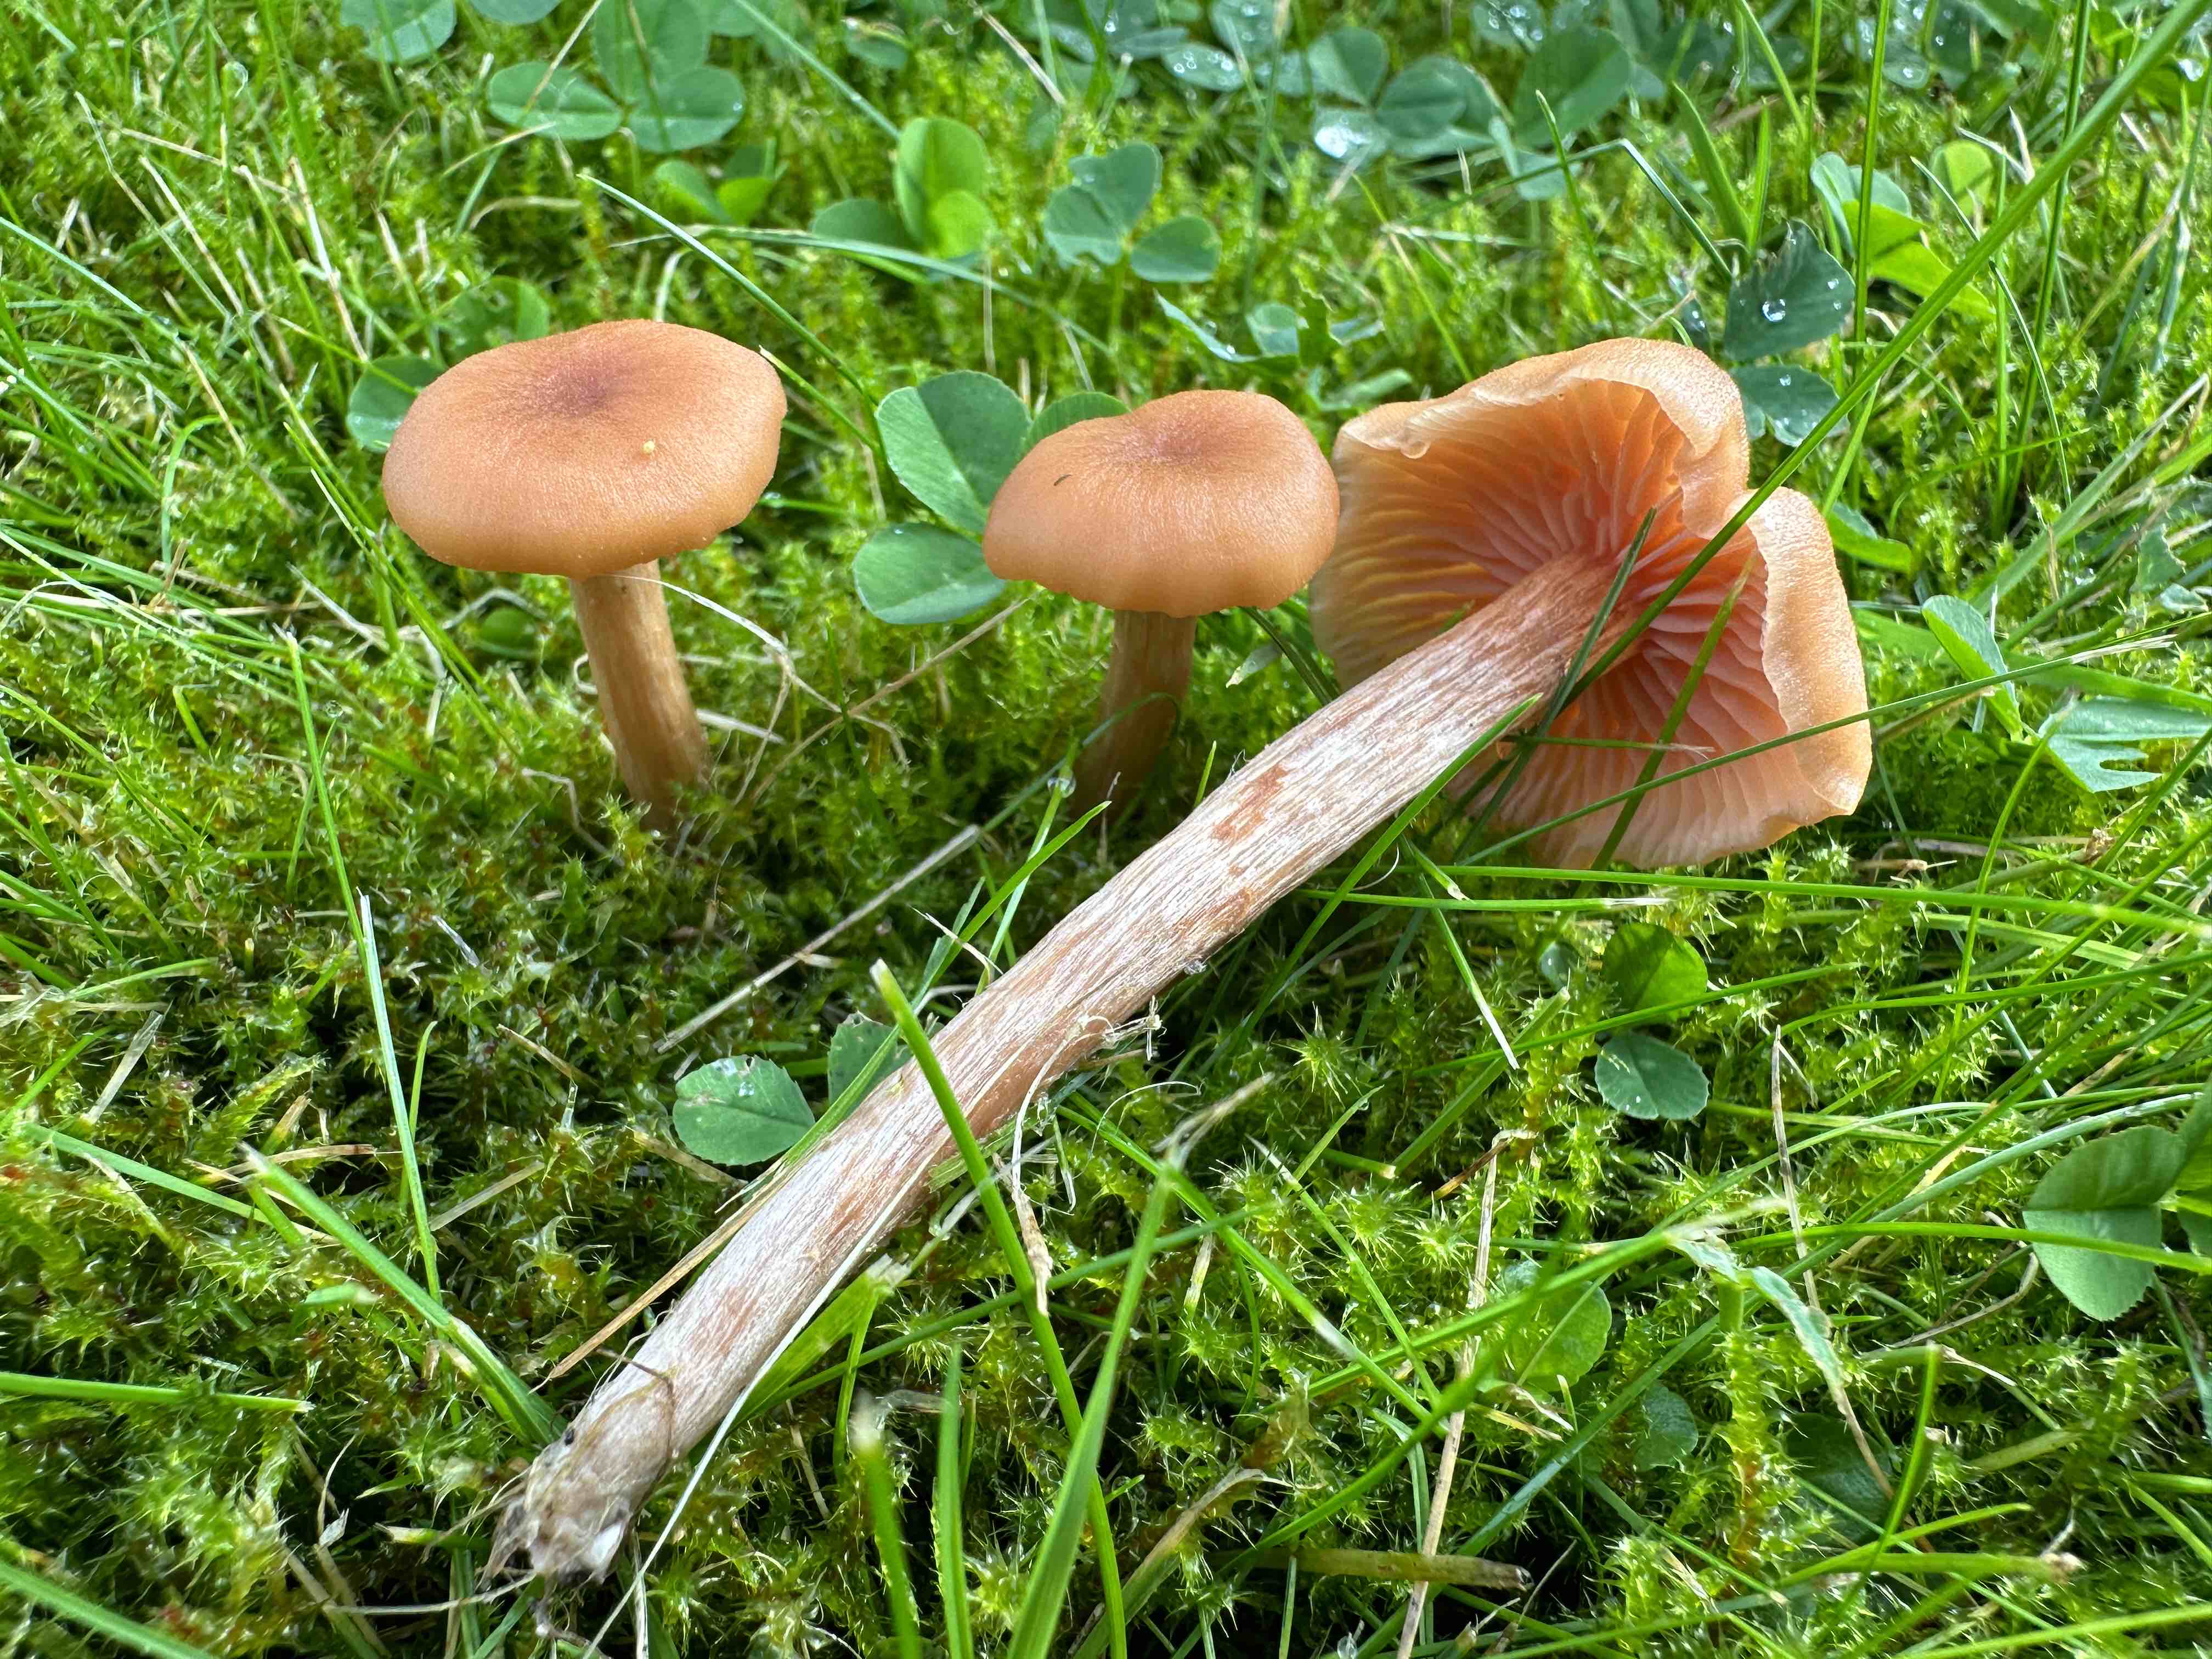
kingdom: Fungi
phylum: Basidiomycota
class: Agaricomycetes
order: Agaricales
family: Hydnangiaceae
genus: Laccaria
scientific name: Laccaria laccata
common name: rød ametysthat
